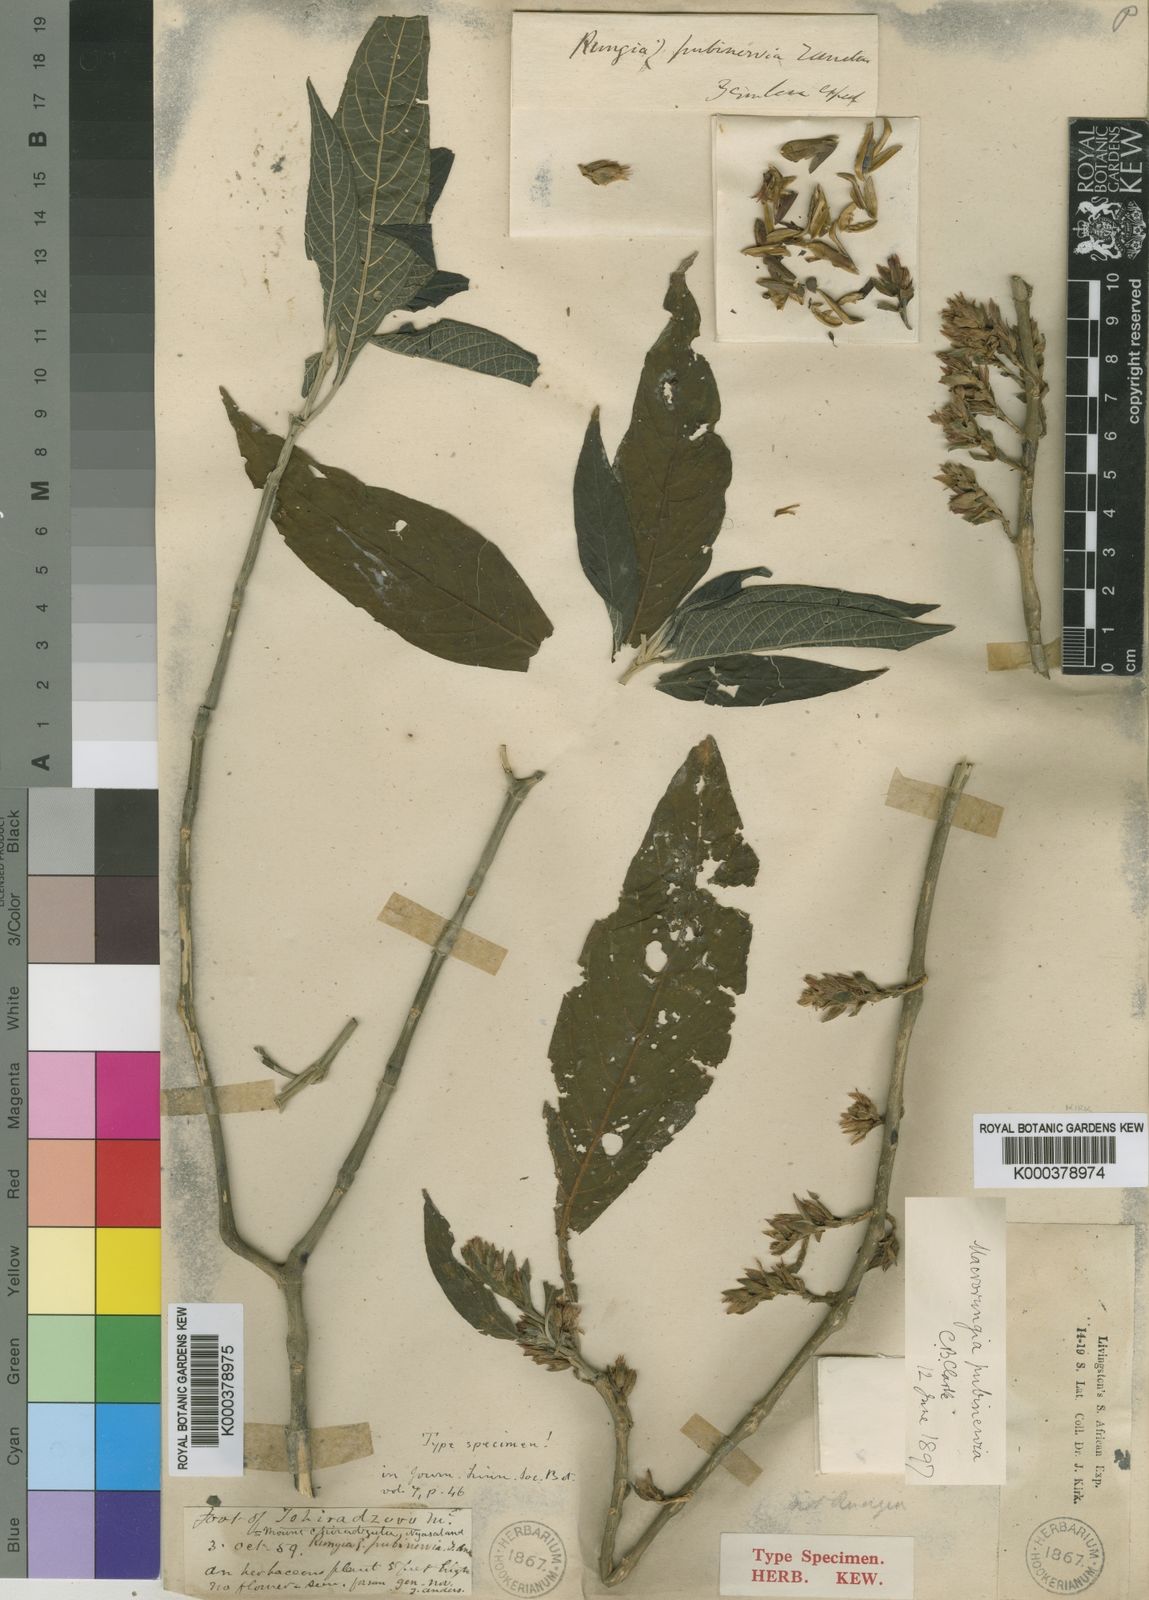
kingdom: Plantae
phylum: Tracheophyta
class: Magnoliopsida
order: Lamiales
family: Acanthaceae
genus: Metarungia
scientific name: Metarungia pubinervia
